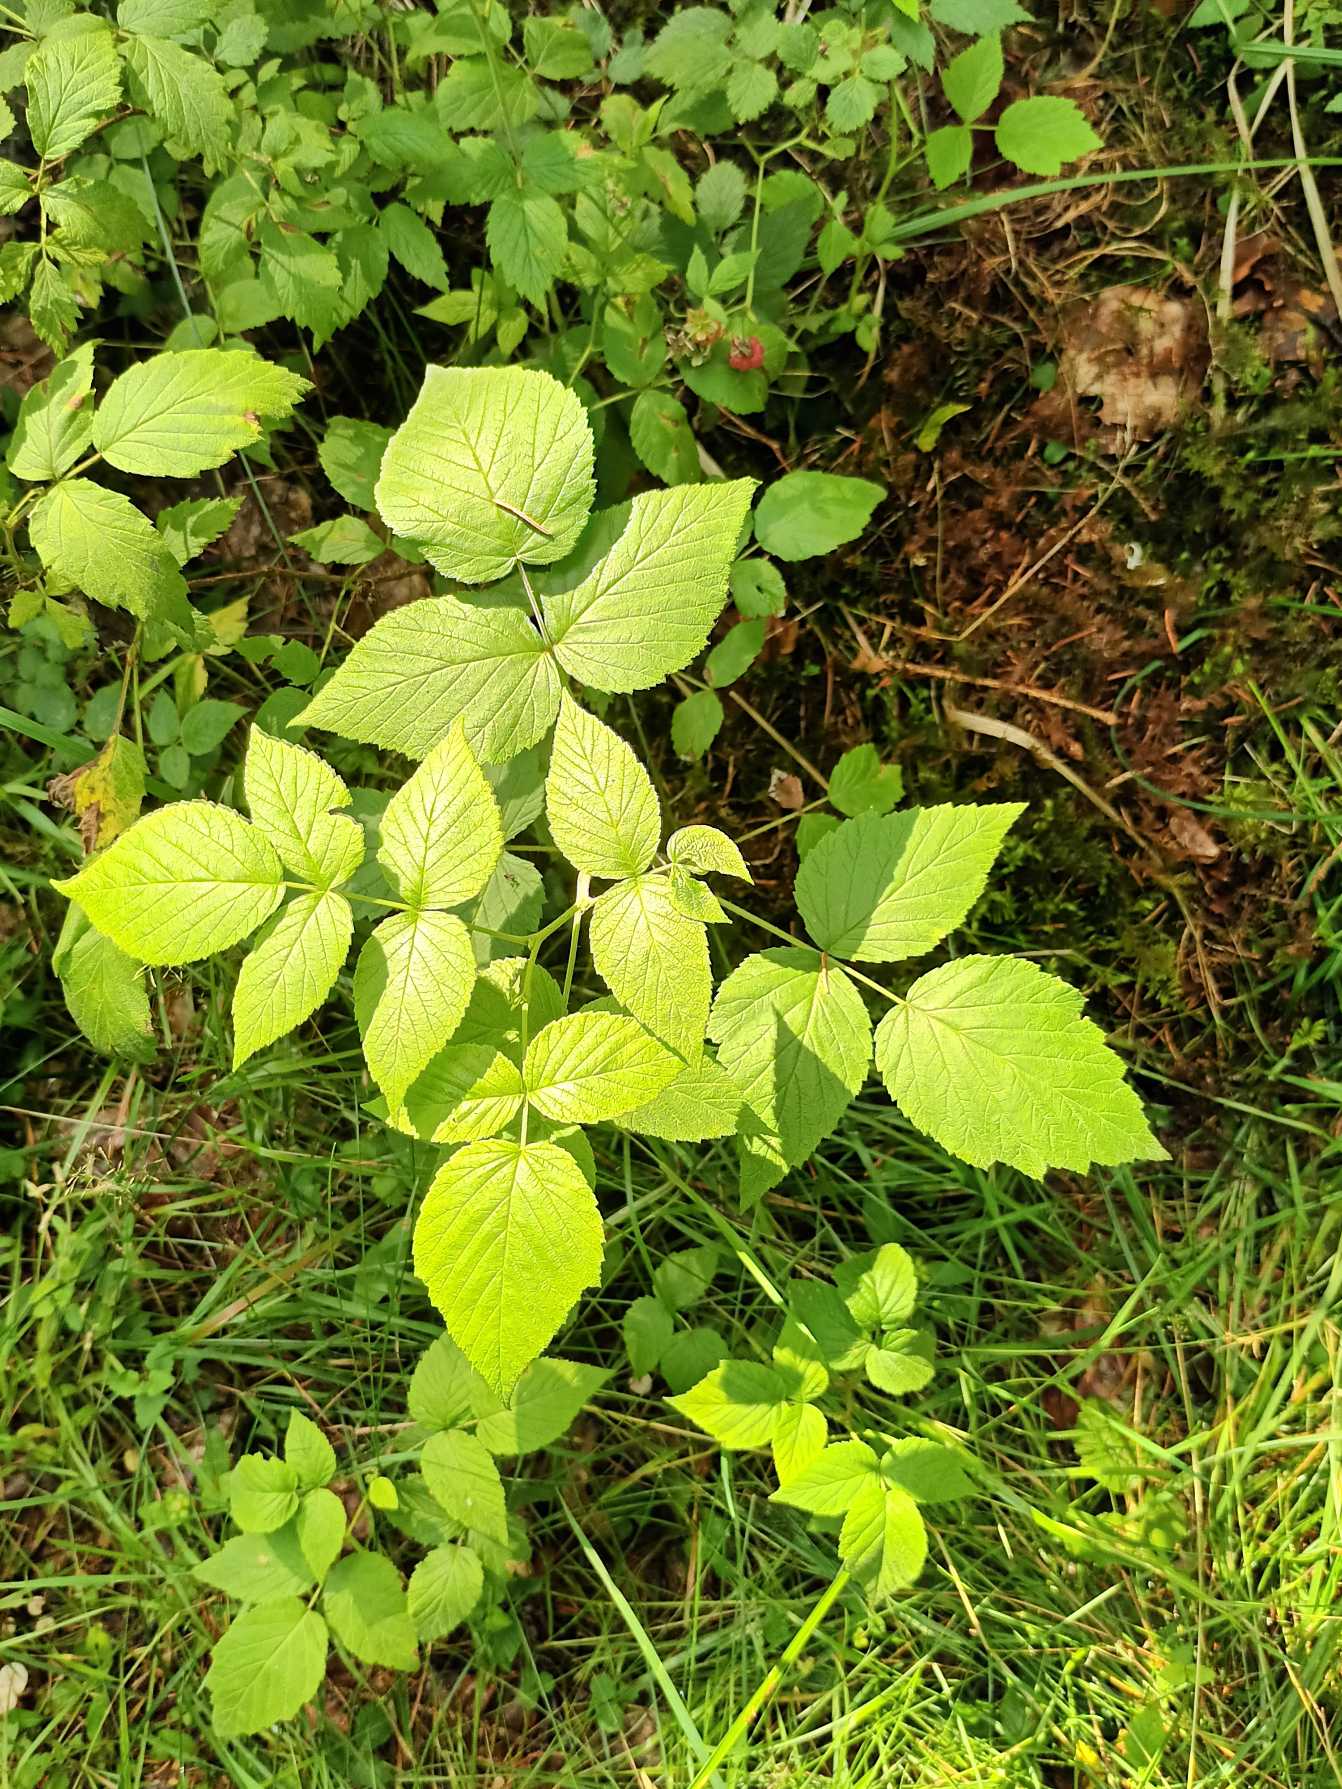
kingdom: Plantae
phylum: Tracheophyta
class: Magnoliopsida
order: Rosales
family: Rosaceae
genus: Rubus
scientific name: Rubus idaeus
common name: Hindbær
